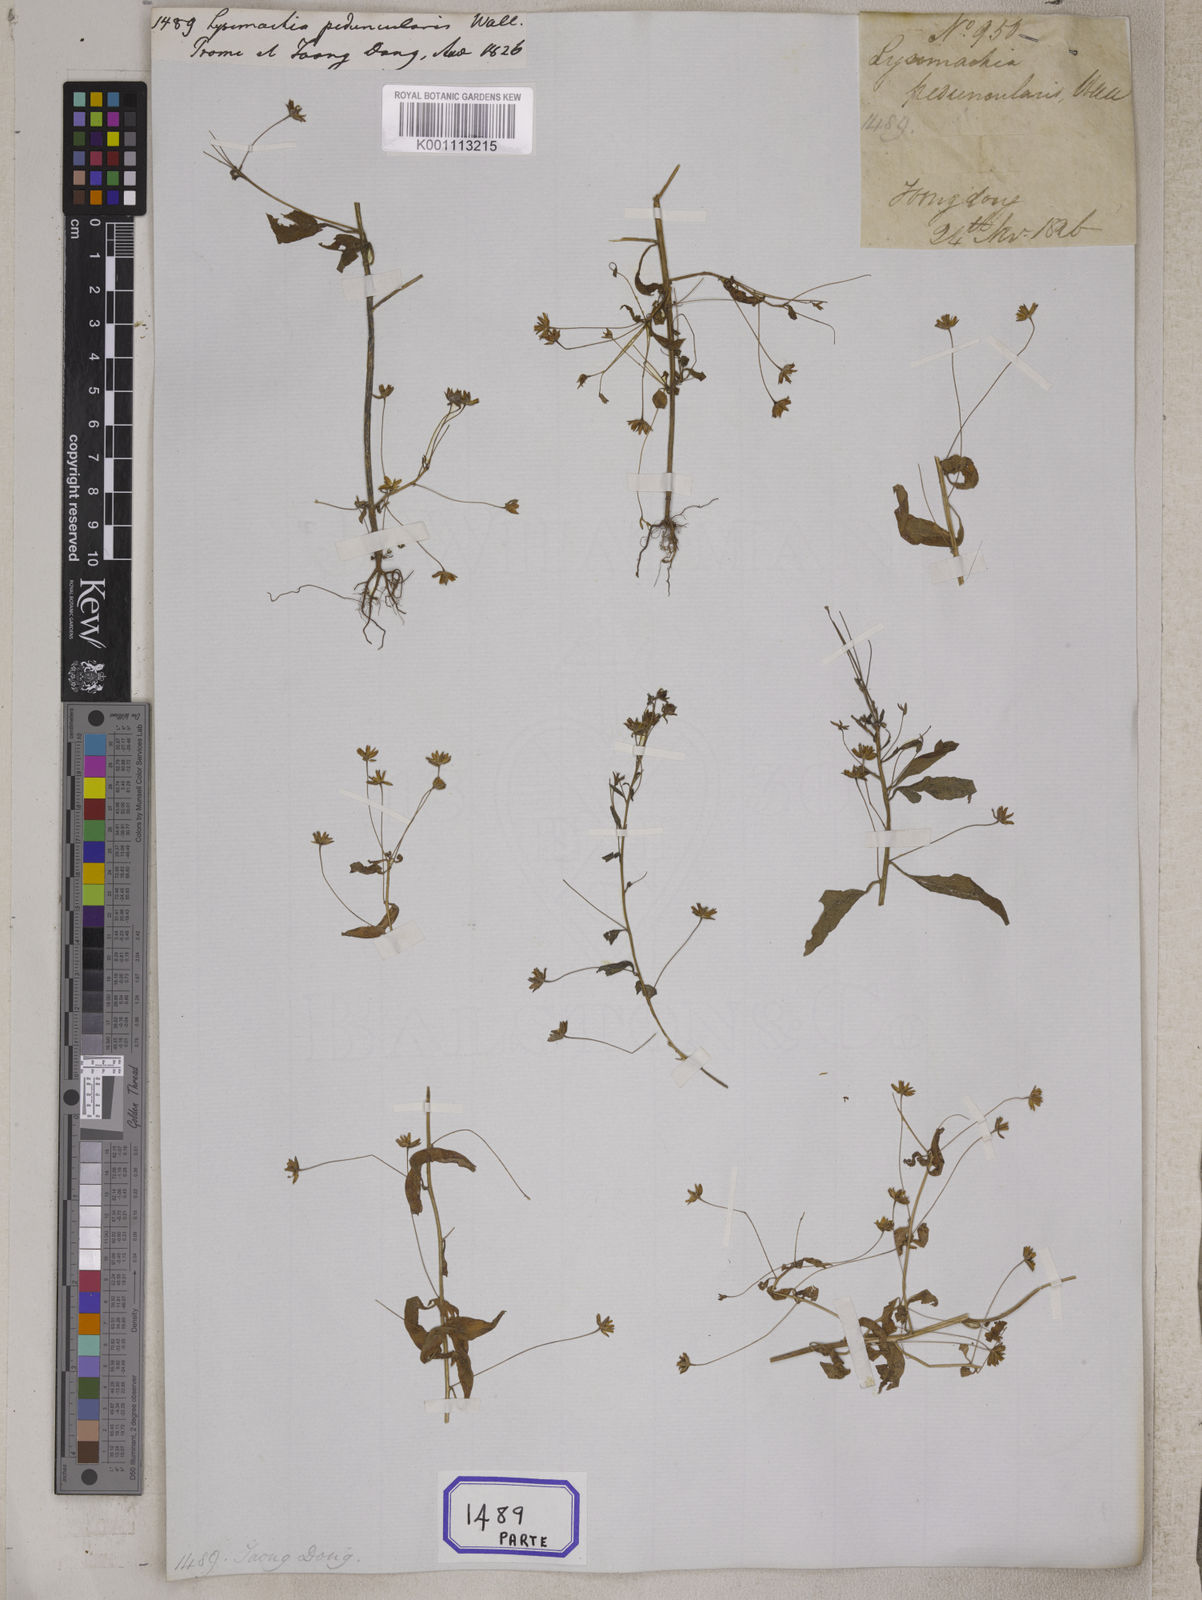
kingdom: Plantae
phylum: Tracheophyta
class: Magnoliopsida
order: Ericales
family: Primulaceae
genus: Lysimachia
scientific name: Lysimachia
